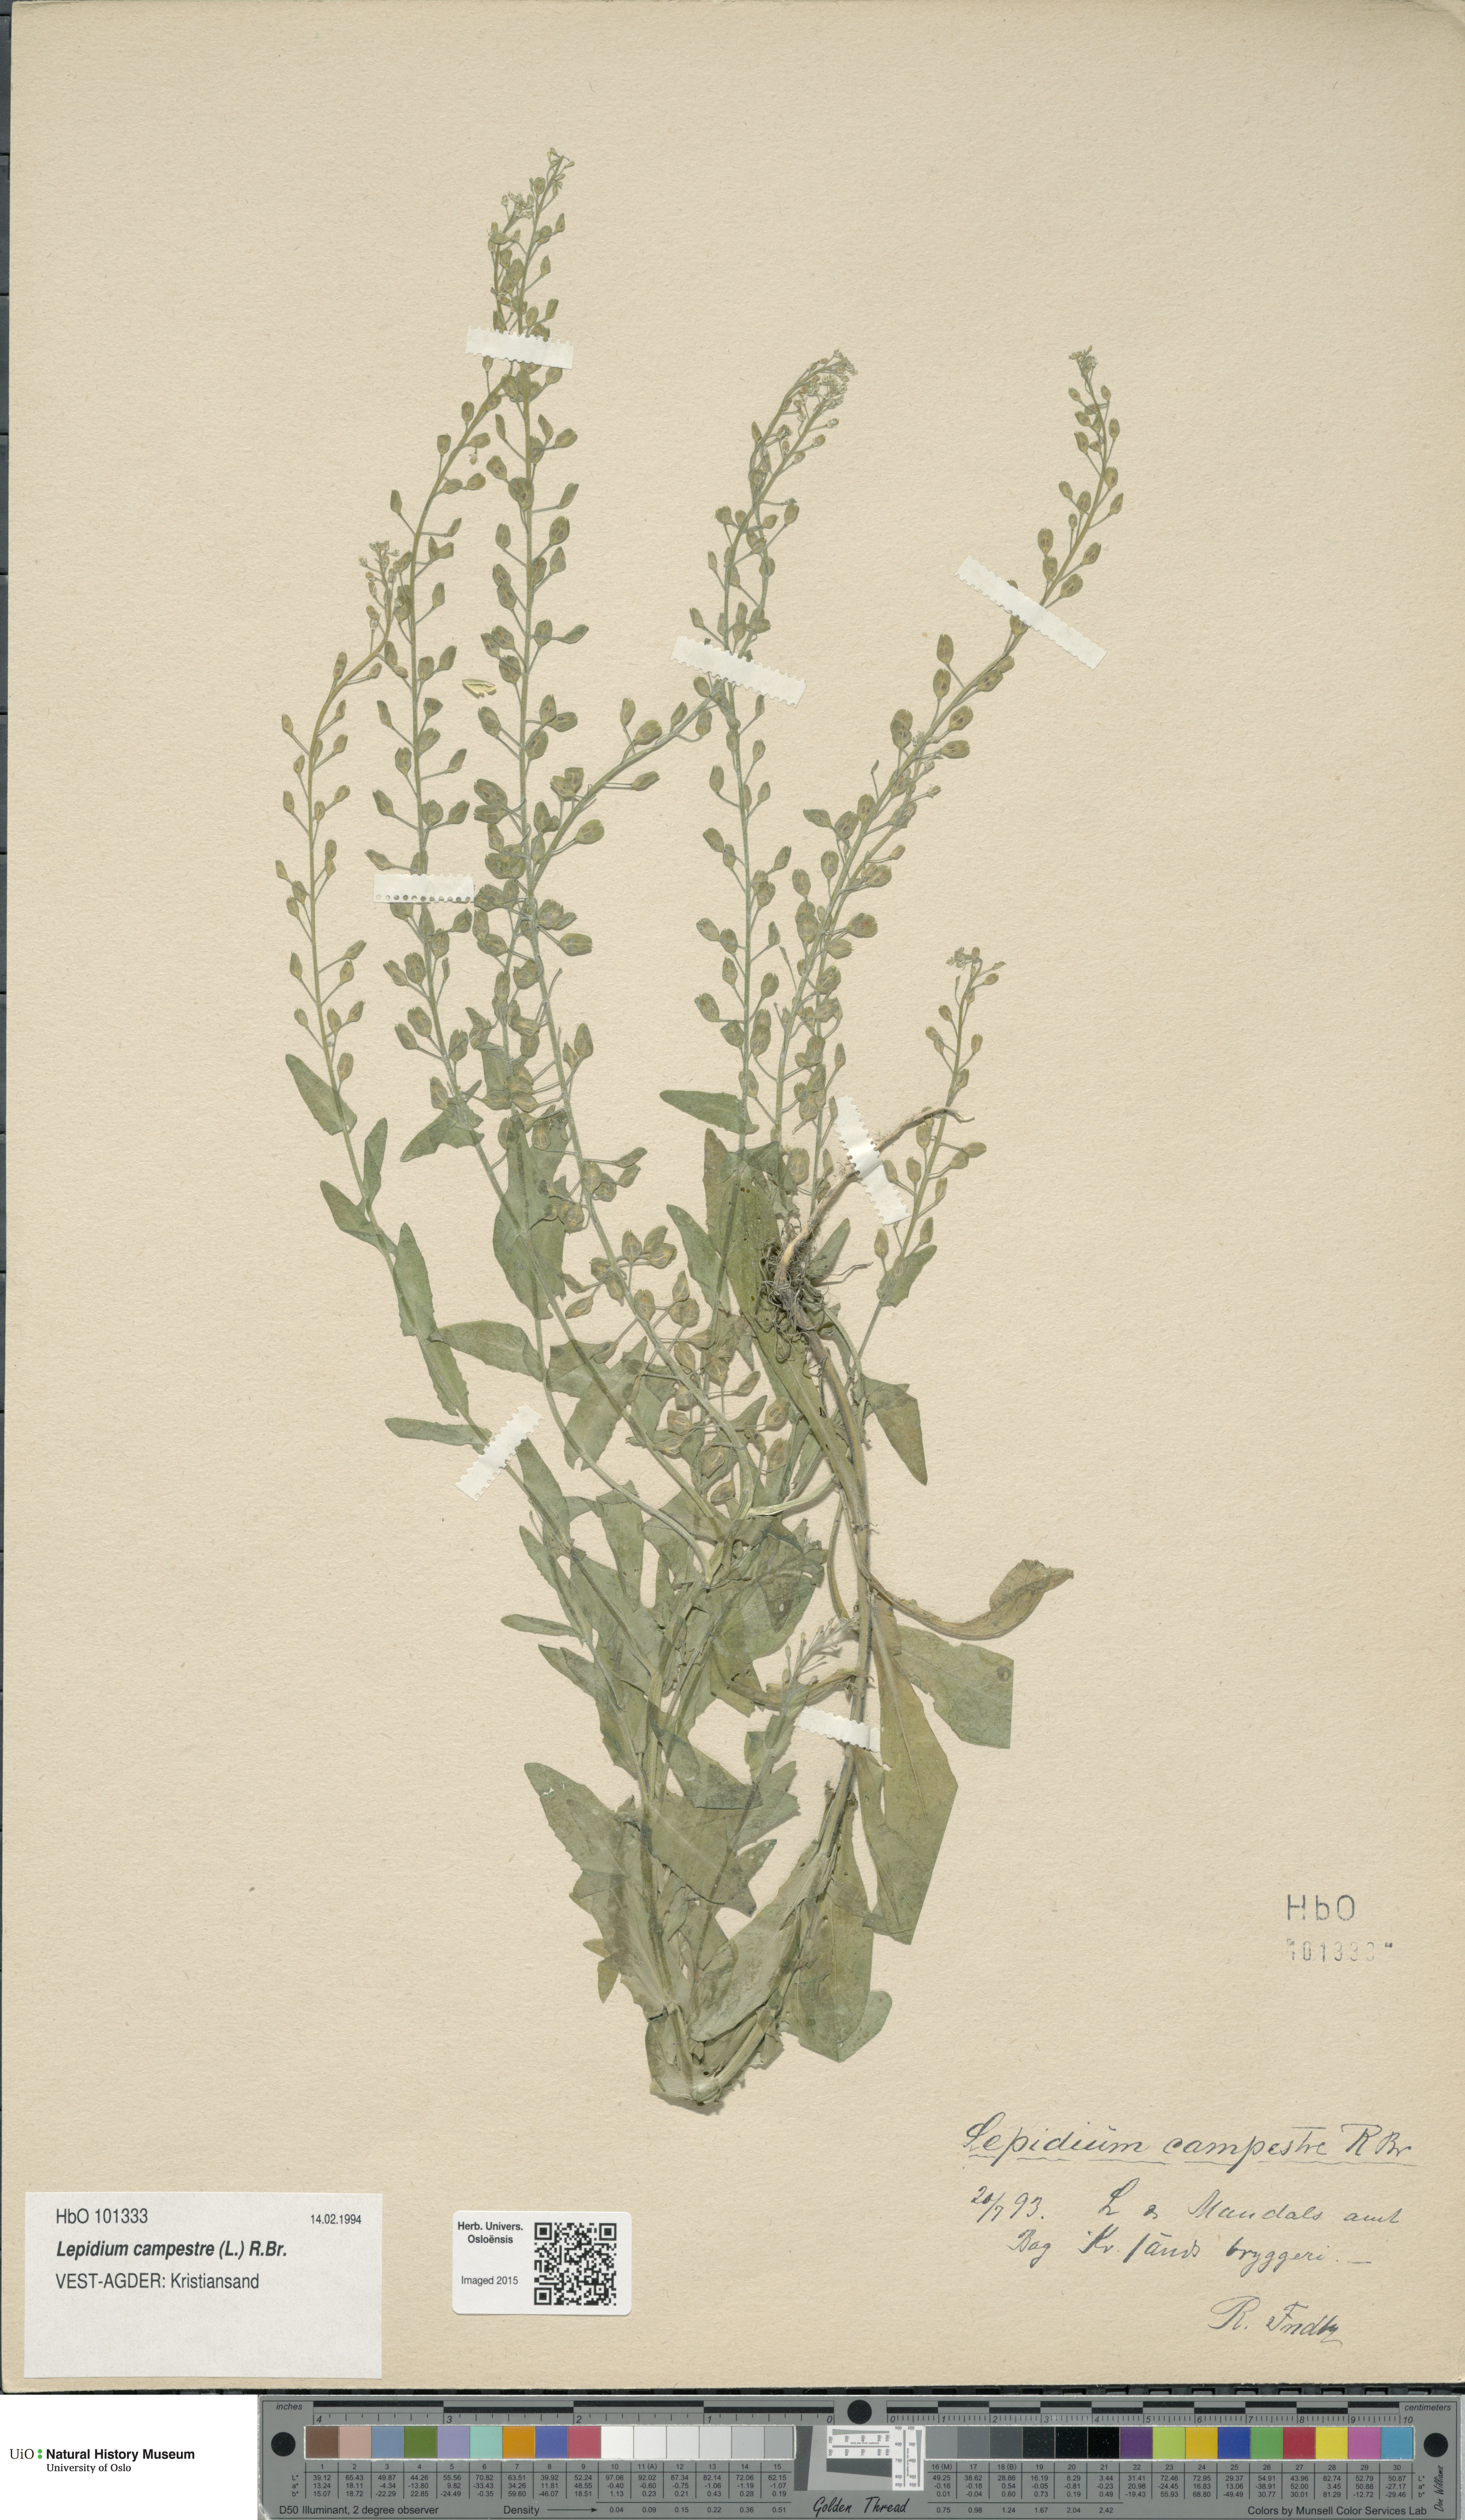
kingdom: Plantae
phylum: Tracheophyta
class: Magnoliopsida
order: Brassicales
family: Brassicaceae
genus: Lepidium
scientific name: Lepidium campestre
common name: Field pepperwort
